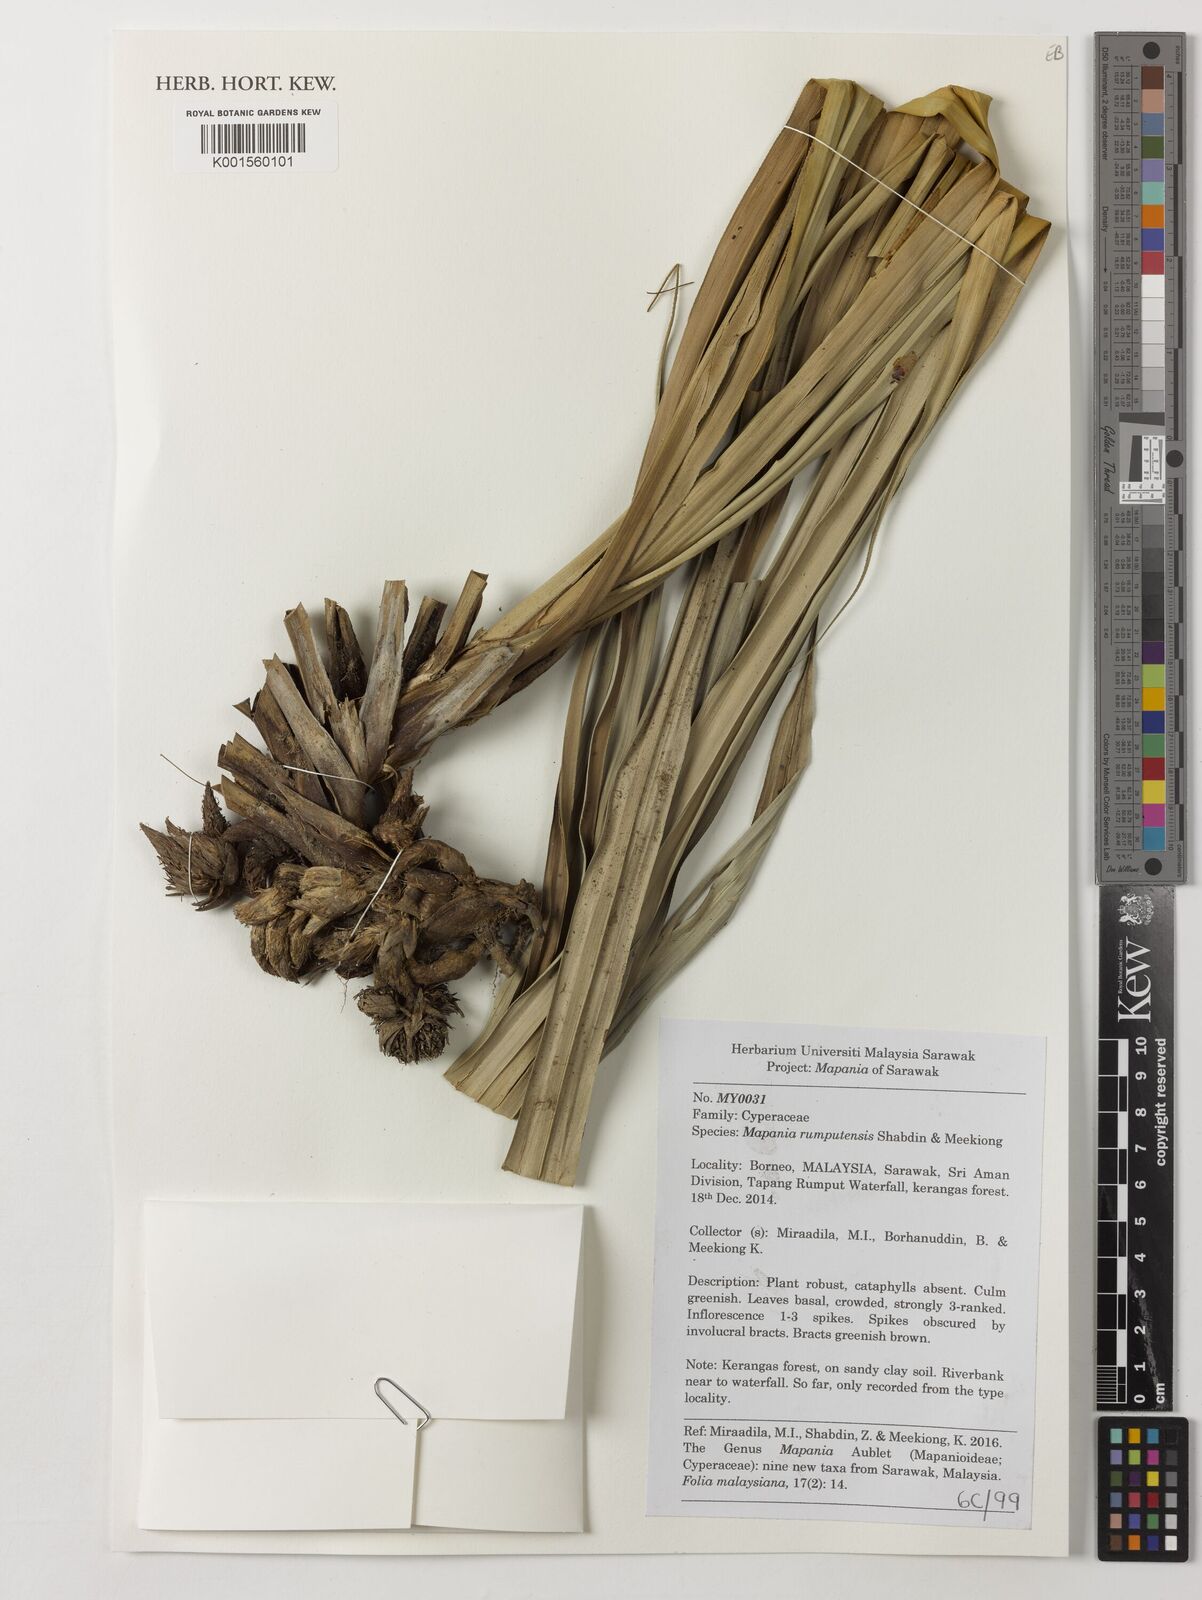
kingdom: Plantae
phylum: Tracheophyta
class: Liliopsida
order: Poales
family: Cyperaceae
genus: Mapania
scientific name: Mapania rumputensis
